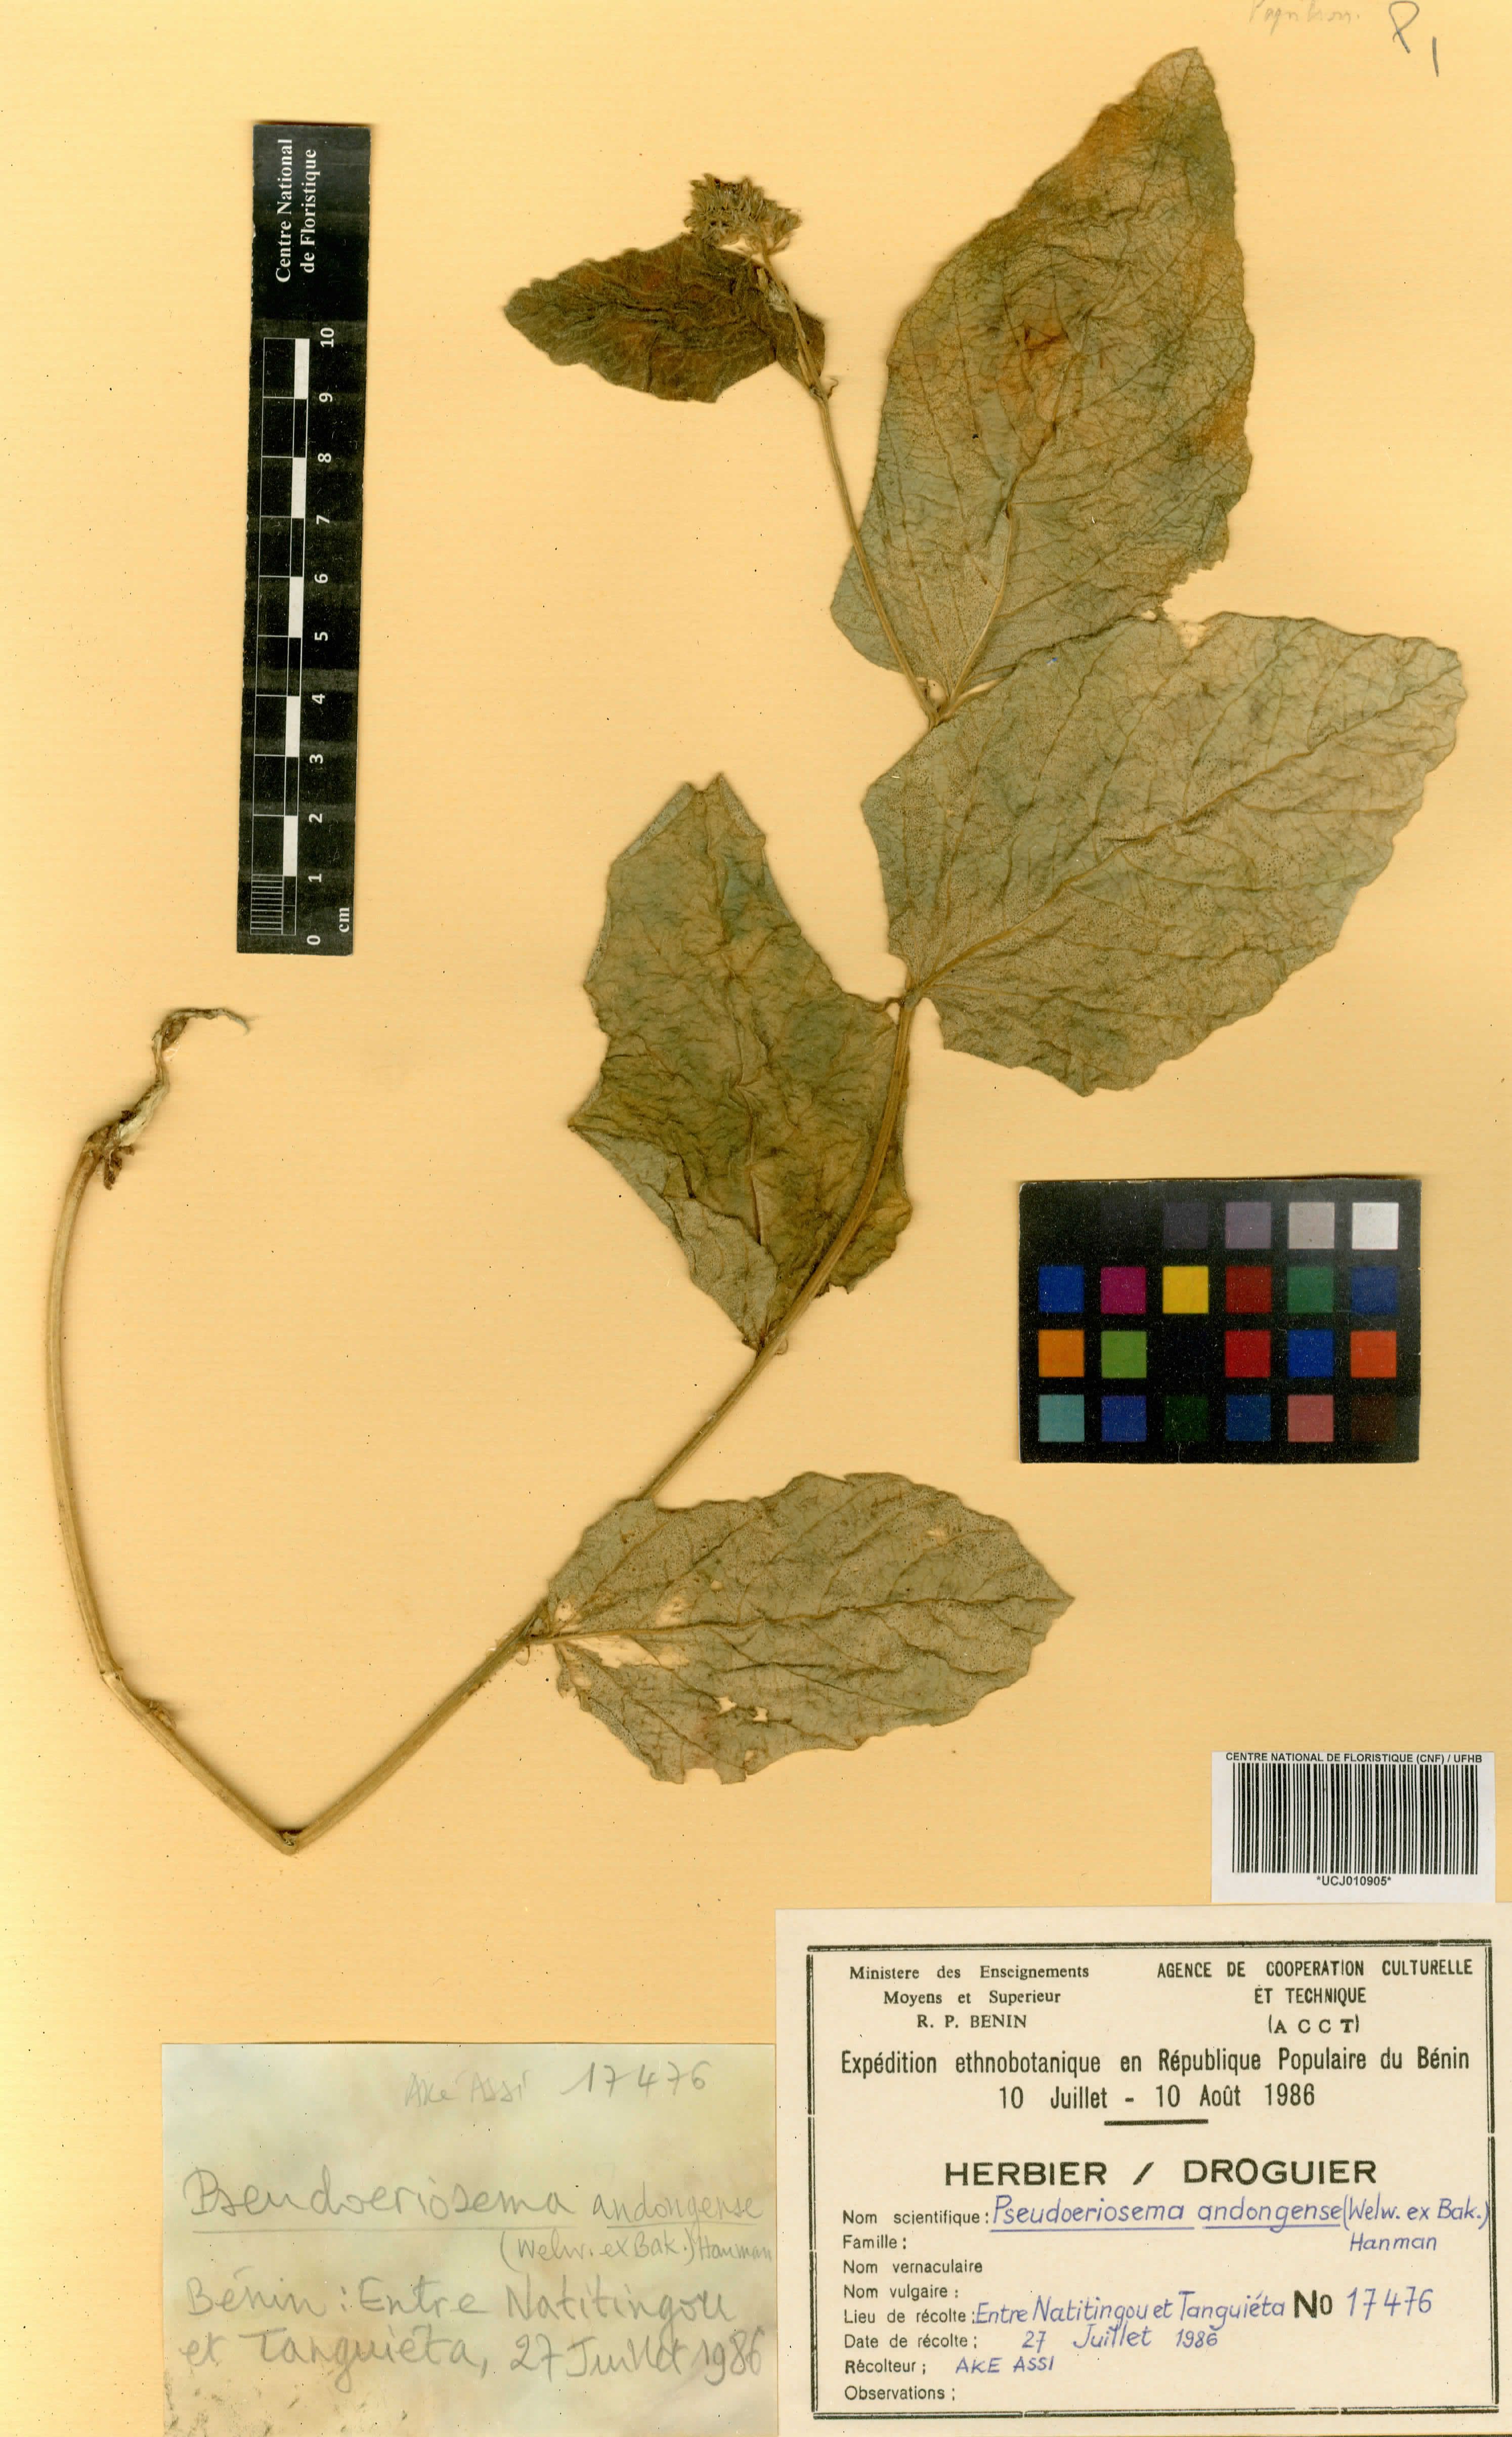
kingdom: Plantae
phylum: Tracheophyta
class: Magnoliopsida
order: Fabales
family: Fabaceae
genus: Pseudoeriosema
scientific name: Pseudoeriosema andongense
